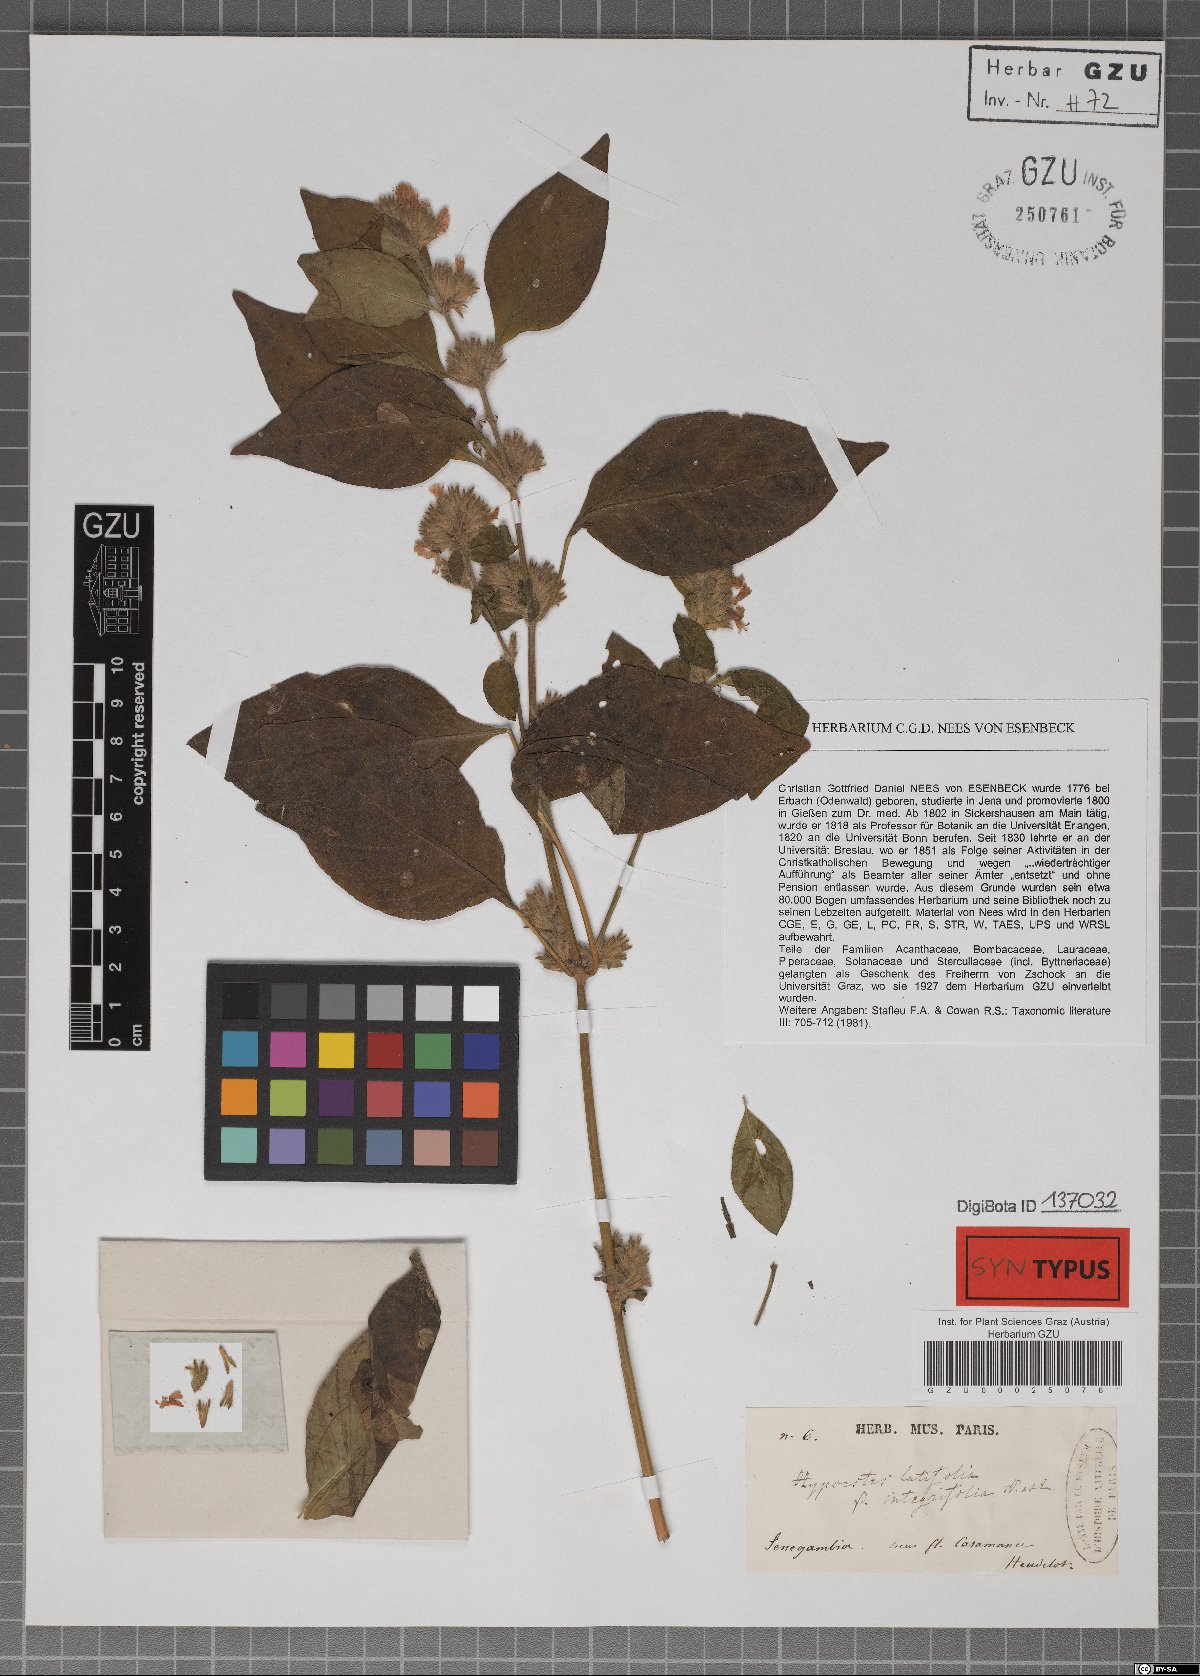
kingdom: Plantae
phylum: Tracheophyta
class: Magnoliopsida
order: Lamiales
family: Acanthaceae
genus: Hypoestes
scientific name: Hypoestes forskaolii
